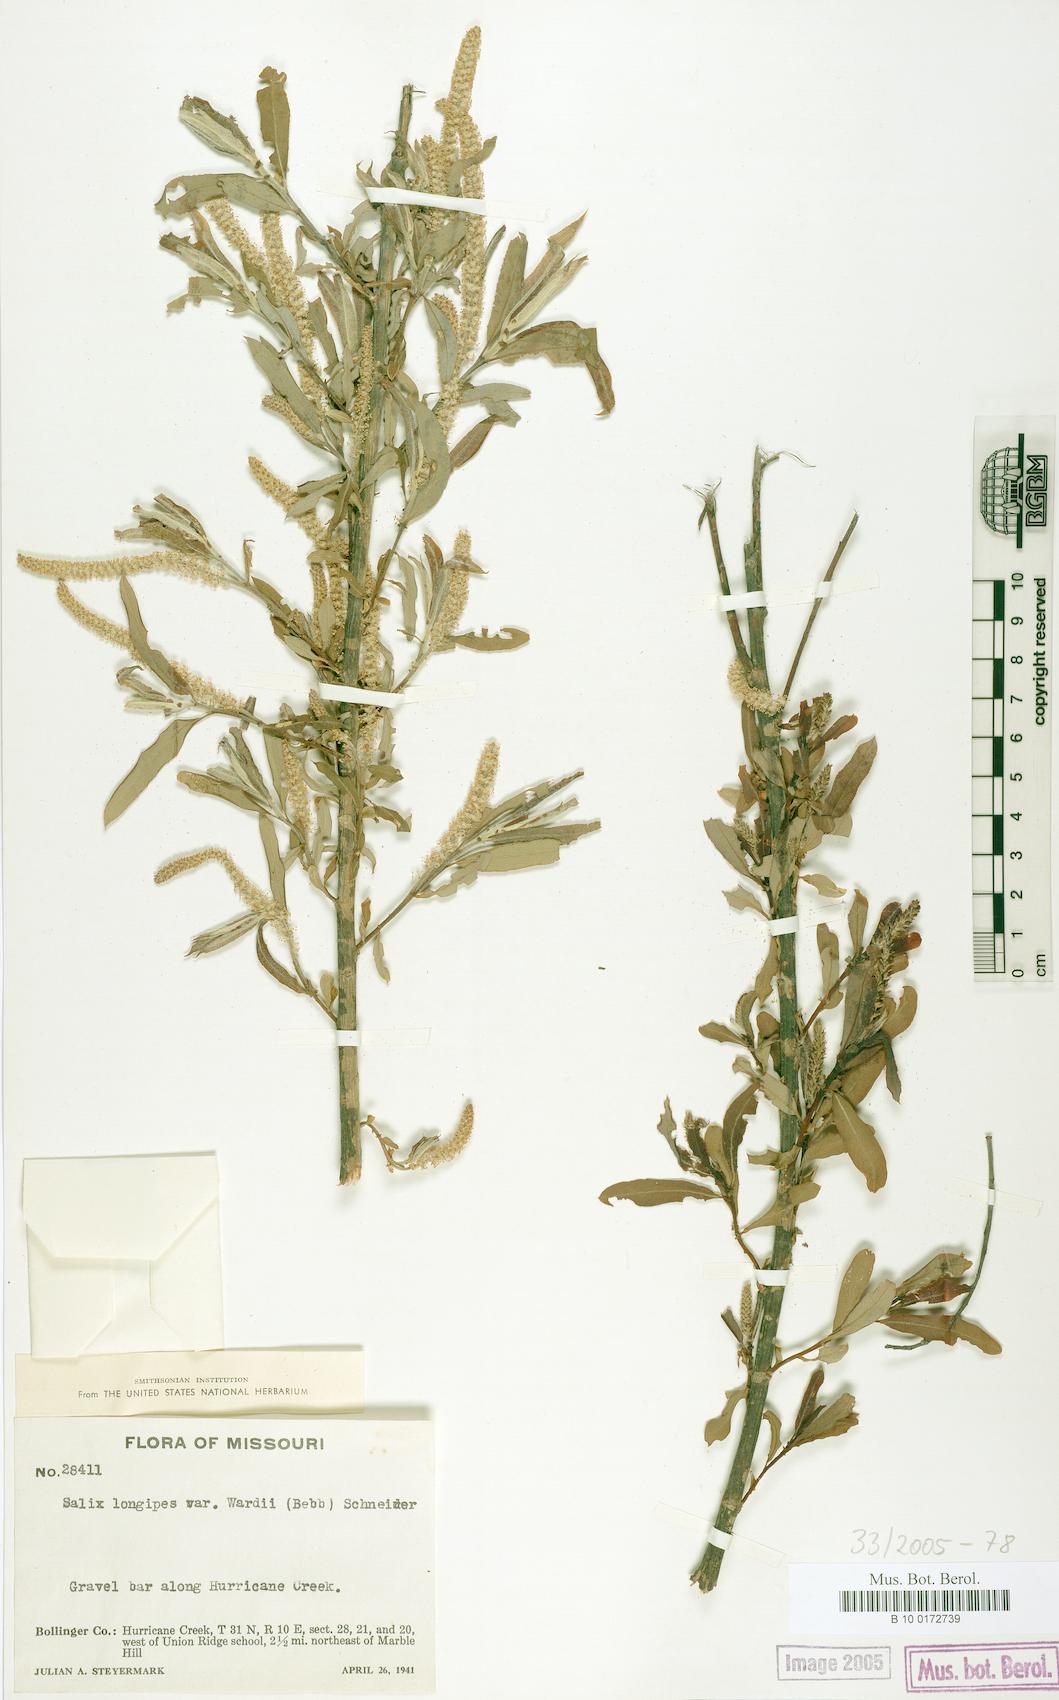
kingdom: Plantae
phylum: Tracheophyta
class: Magnoliopsida
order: Malpighiales
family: Salicaceae
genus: Salix
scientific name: Salix caroliniana
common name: Carolina willow
